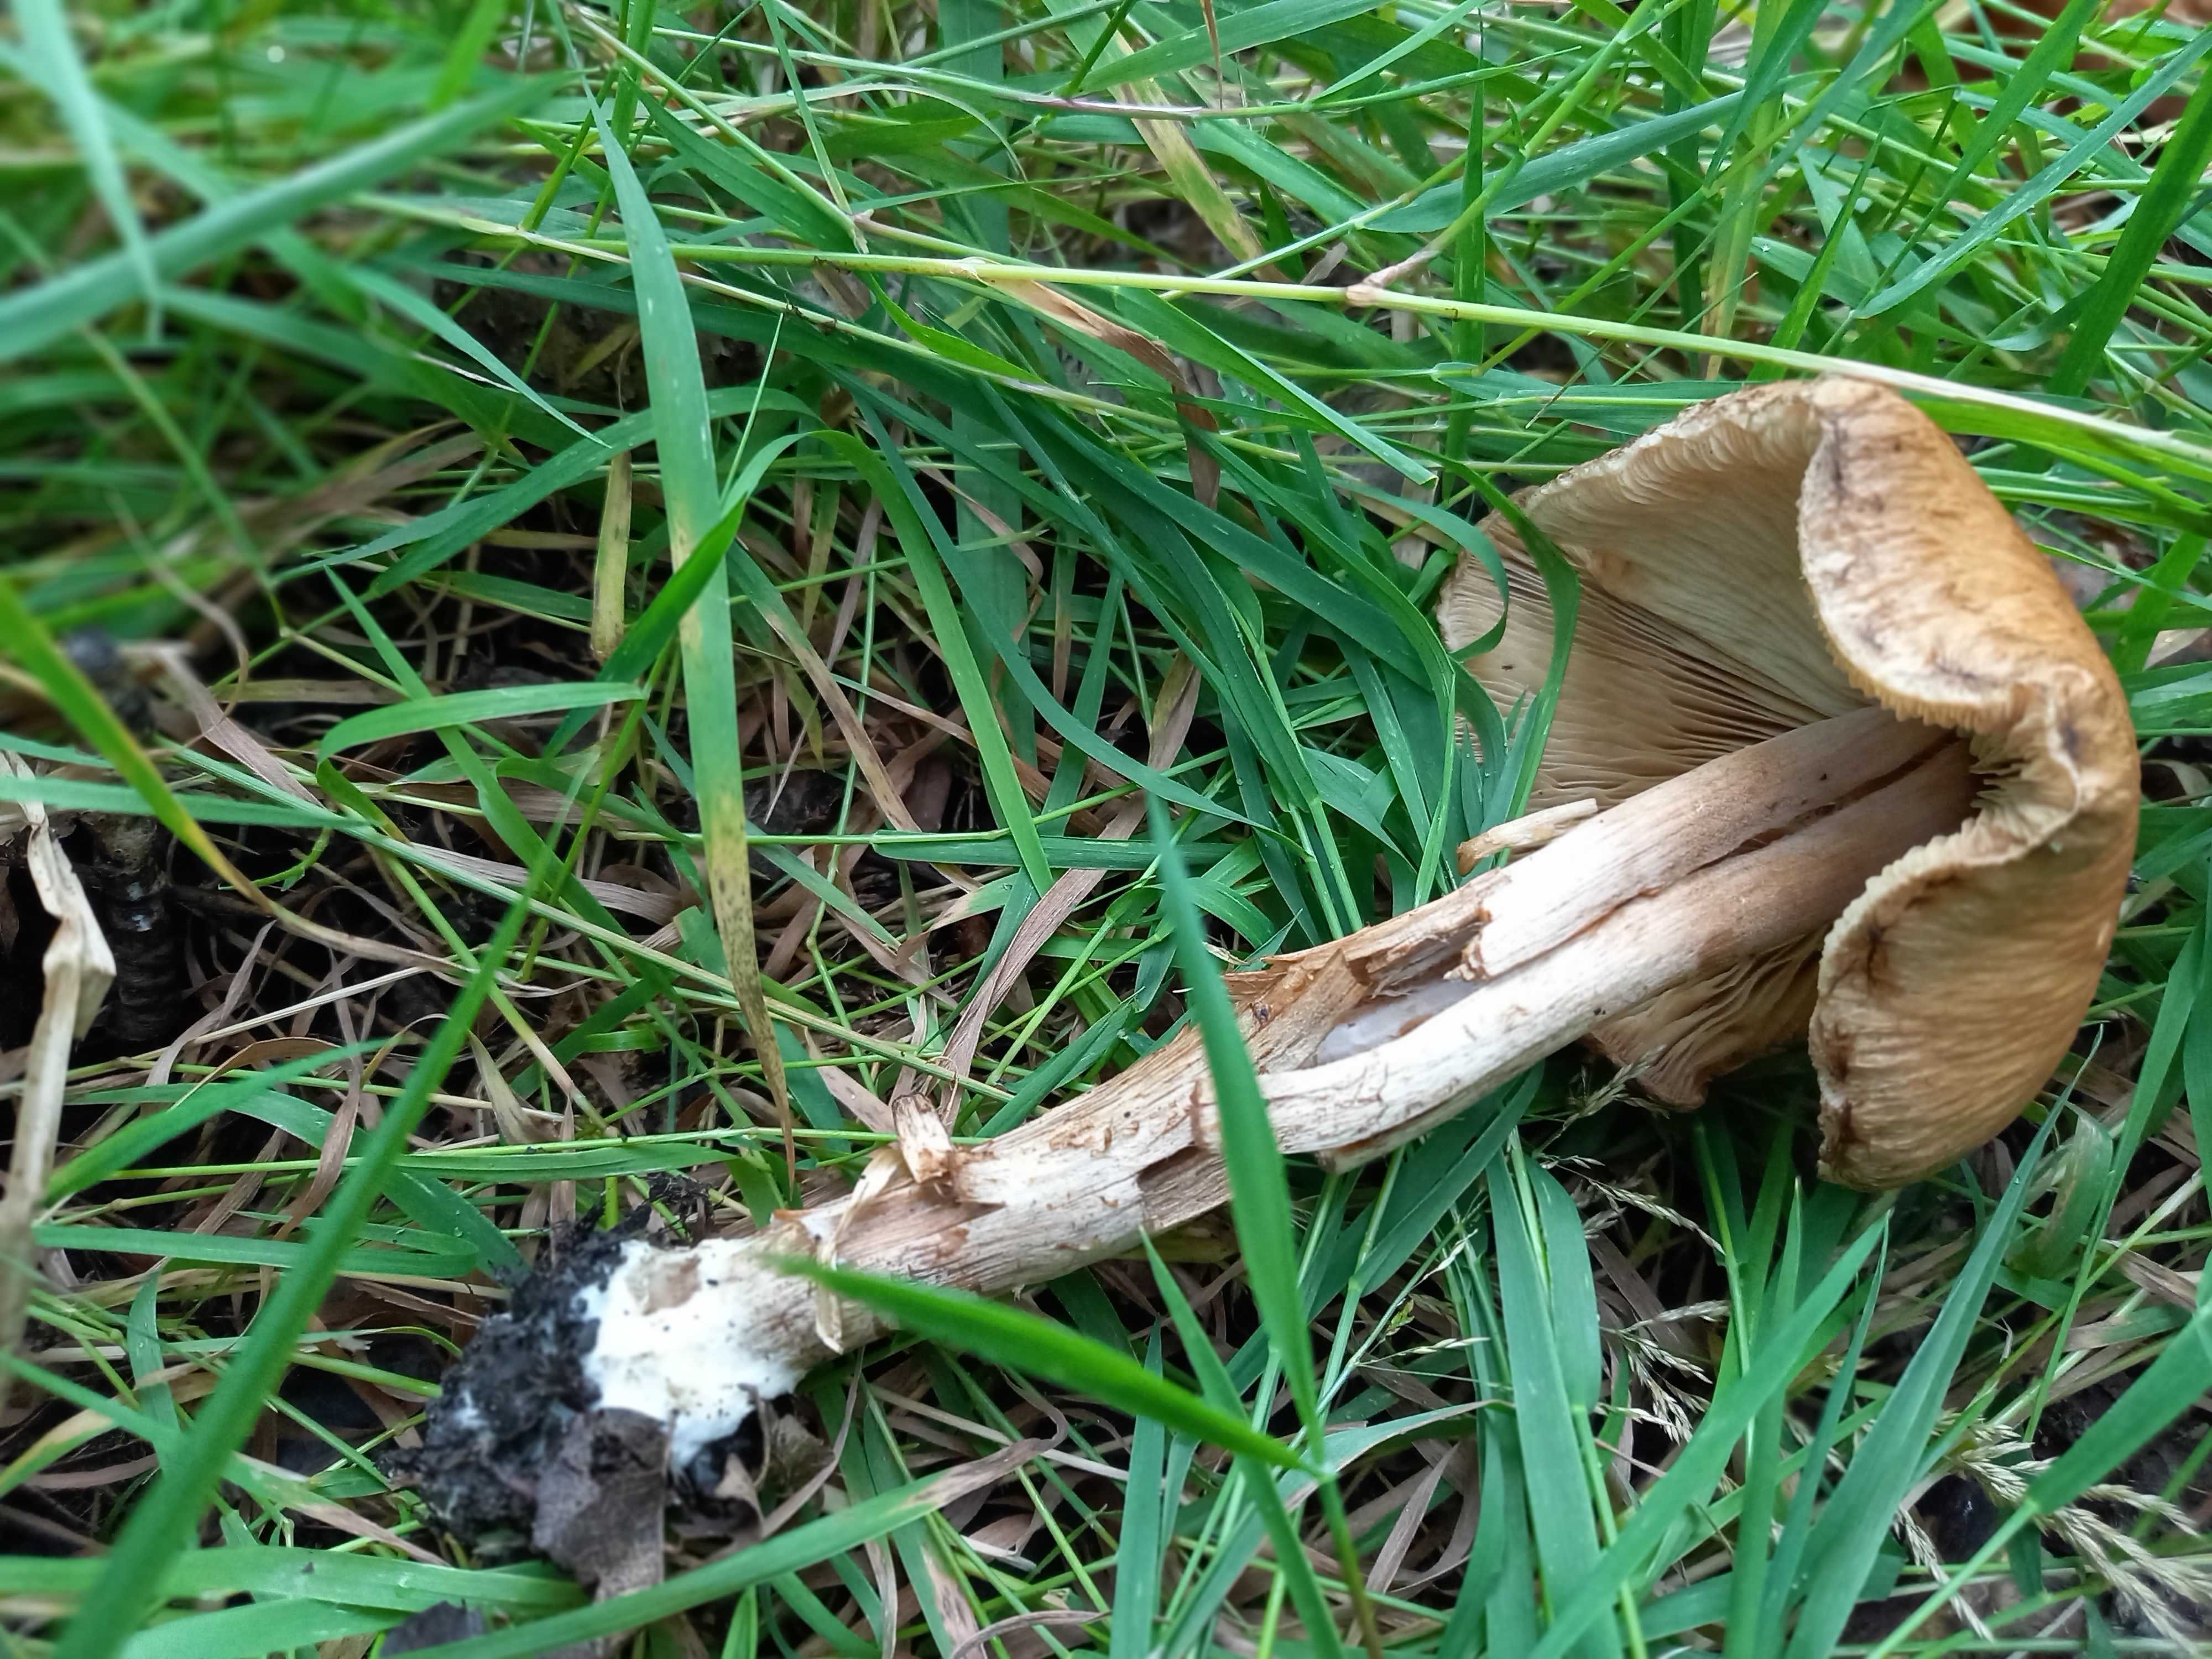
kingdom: Fungi
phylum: Basidiomycota
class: Agaricomycetes
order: Agaricales
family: Inocybaceae
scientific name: Inocybaceae
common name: trævlhatfamilien
